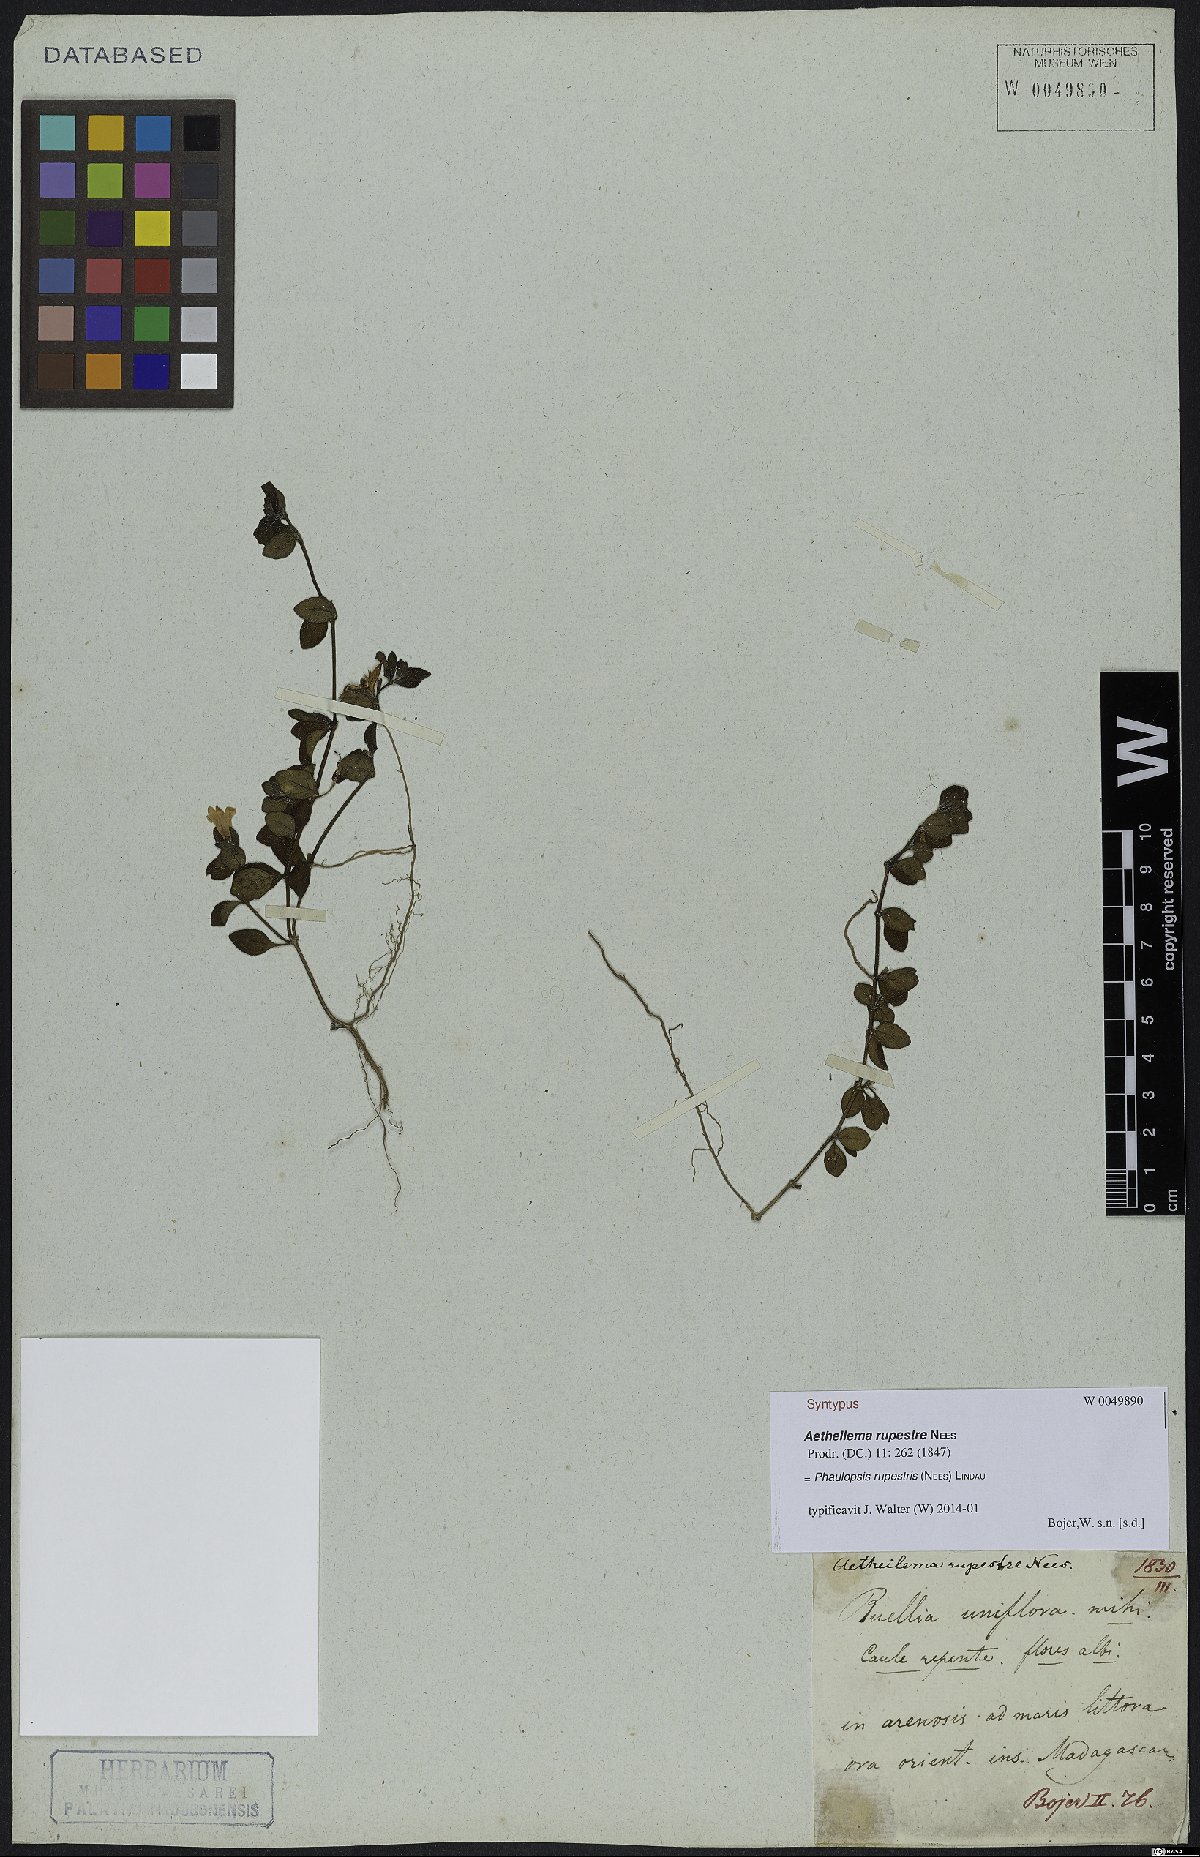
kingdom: Plantae
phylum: Tracheophyta
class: Magnoliopsida
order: Lamiales
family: Acanthaceae
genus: Phaulopsis
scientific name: Phaulopsis rupestris
